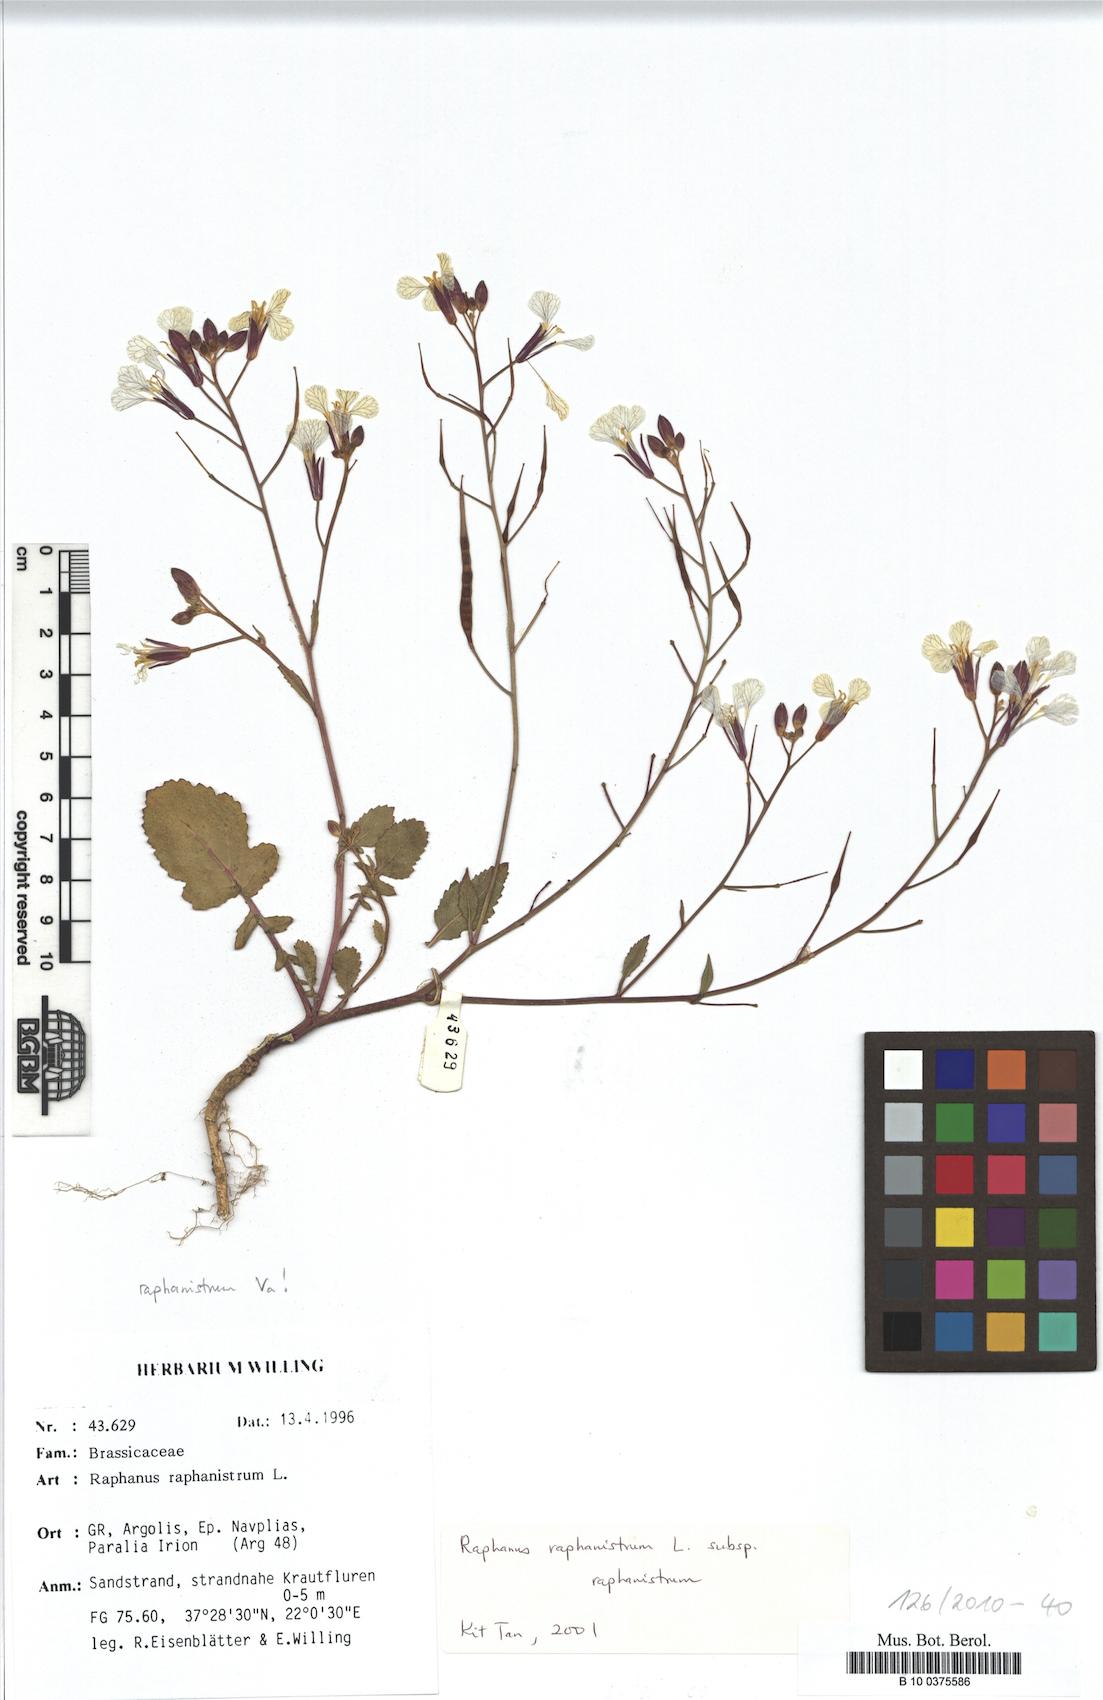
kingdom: Plantae
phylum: Tracheophyta
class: Magnoliopsida
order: Brassicales
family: Brassicaceae
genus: Raphanus
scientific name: Raphanus raphanistrum
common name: Wild radish
